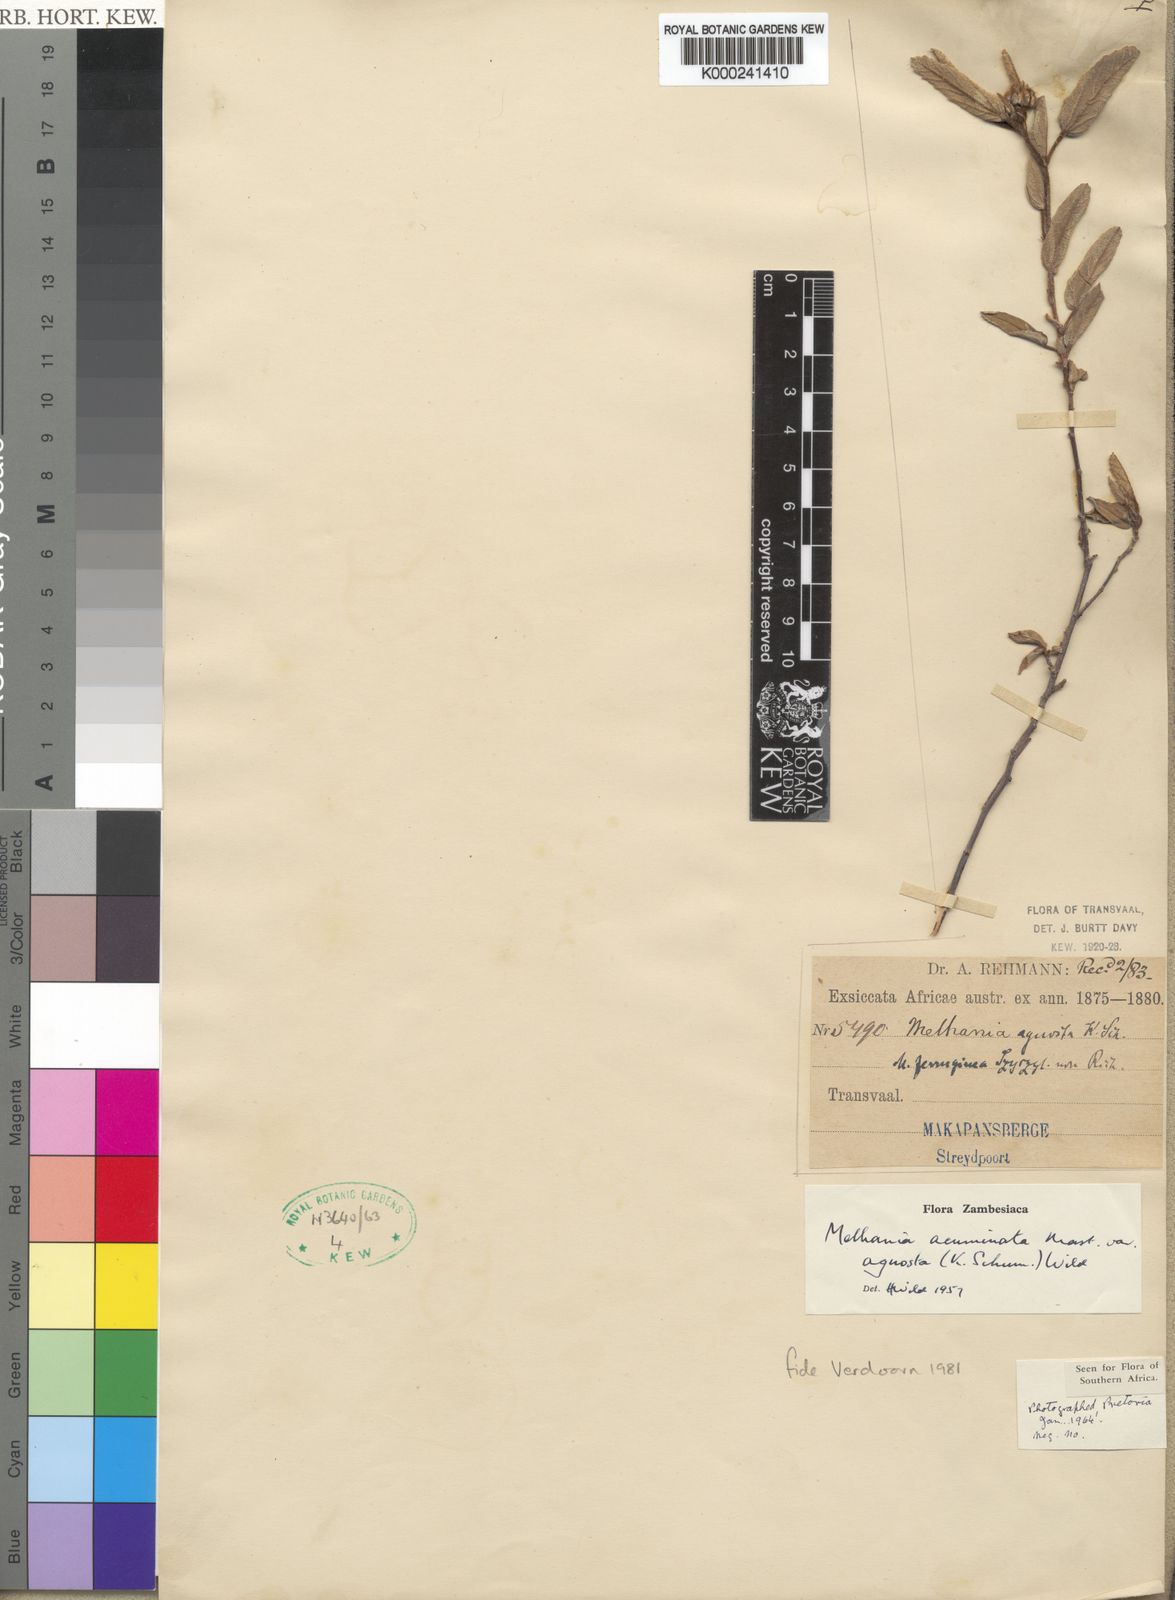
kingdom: Plantae
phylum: Tracheophyta
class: Magnoliopsida
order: Malvales
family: Malvaceae
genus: Melhania
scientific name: Melhania acuminata
